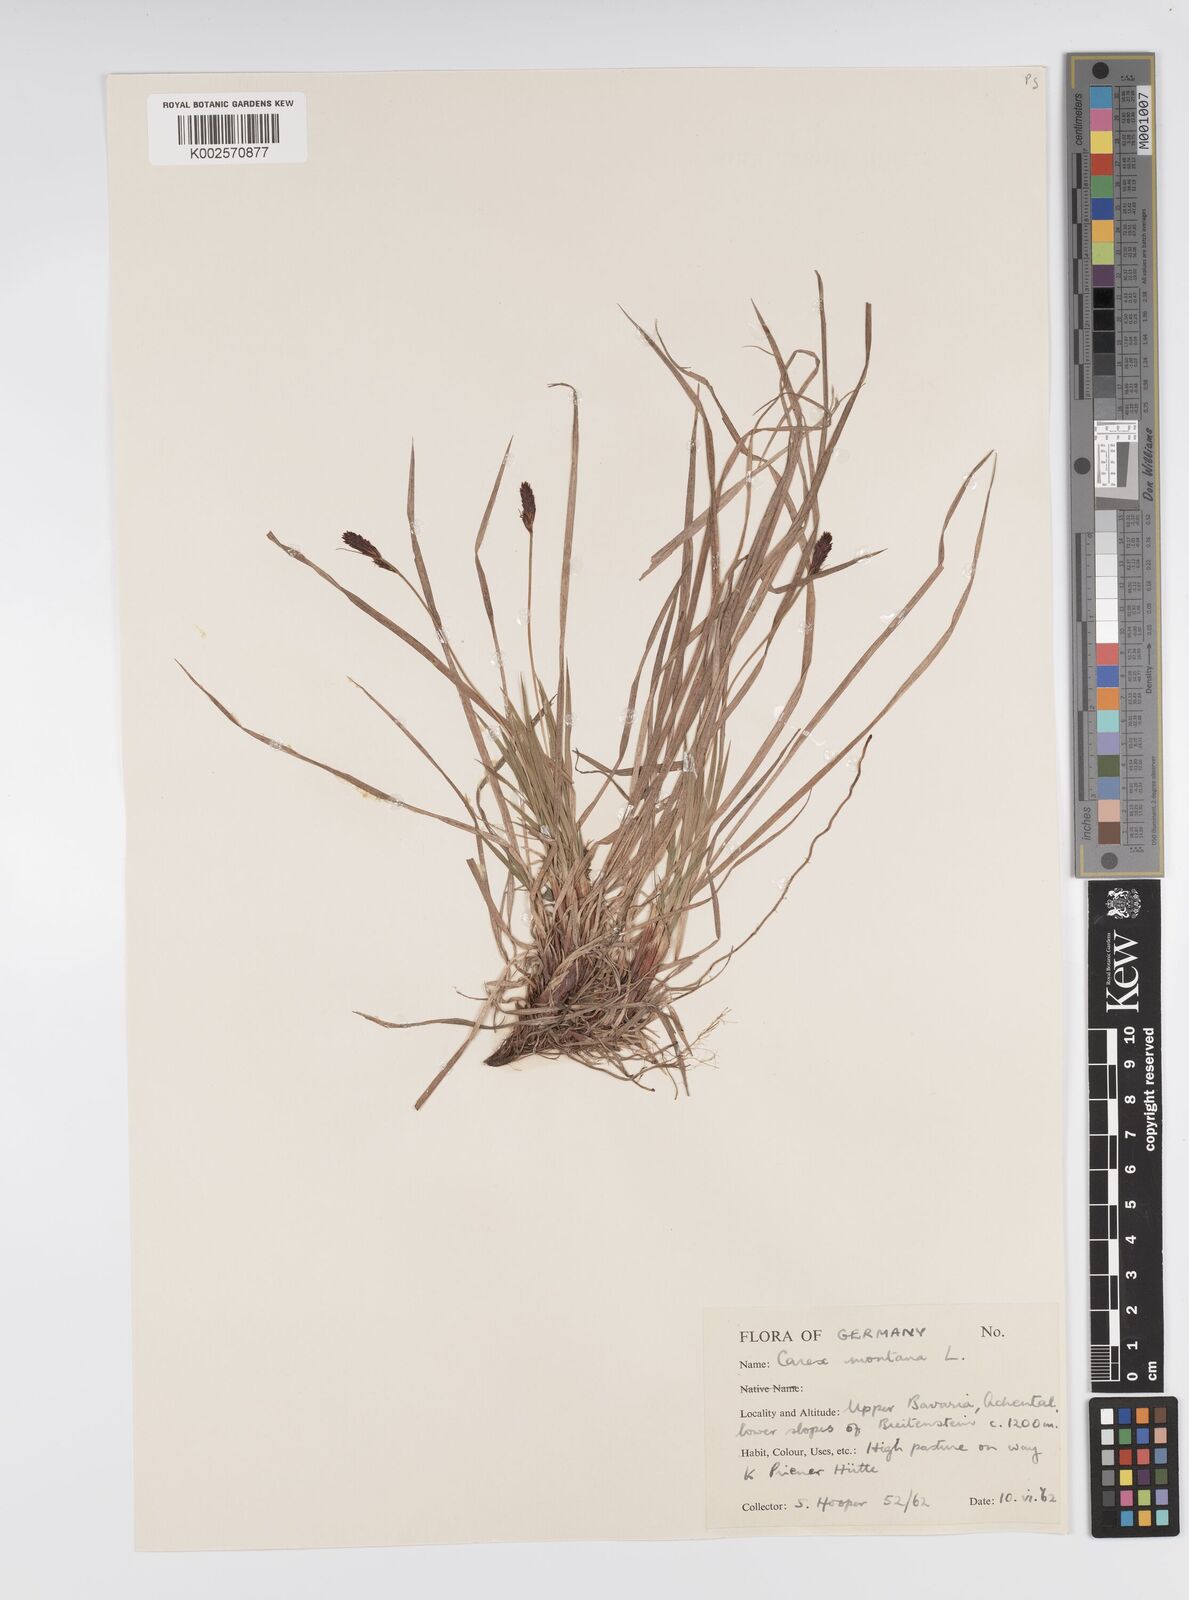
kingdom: Plantae
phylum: Tracheophyta
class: Liliopsida
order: Poales
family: Cyperaceae
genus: Carex
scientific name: Carex montana
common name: Soft-leaved sedge
